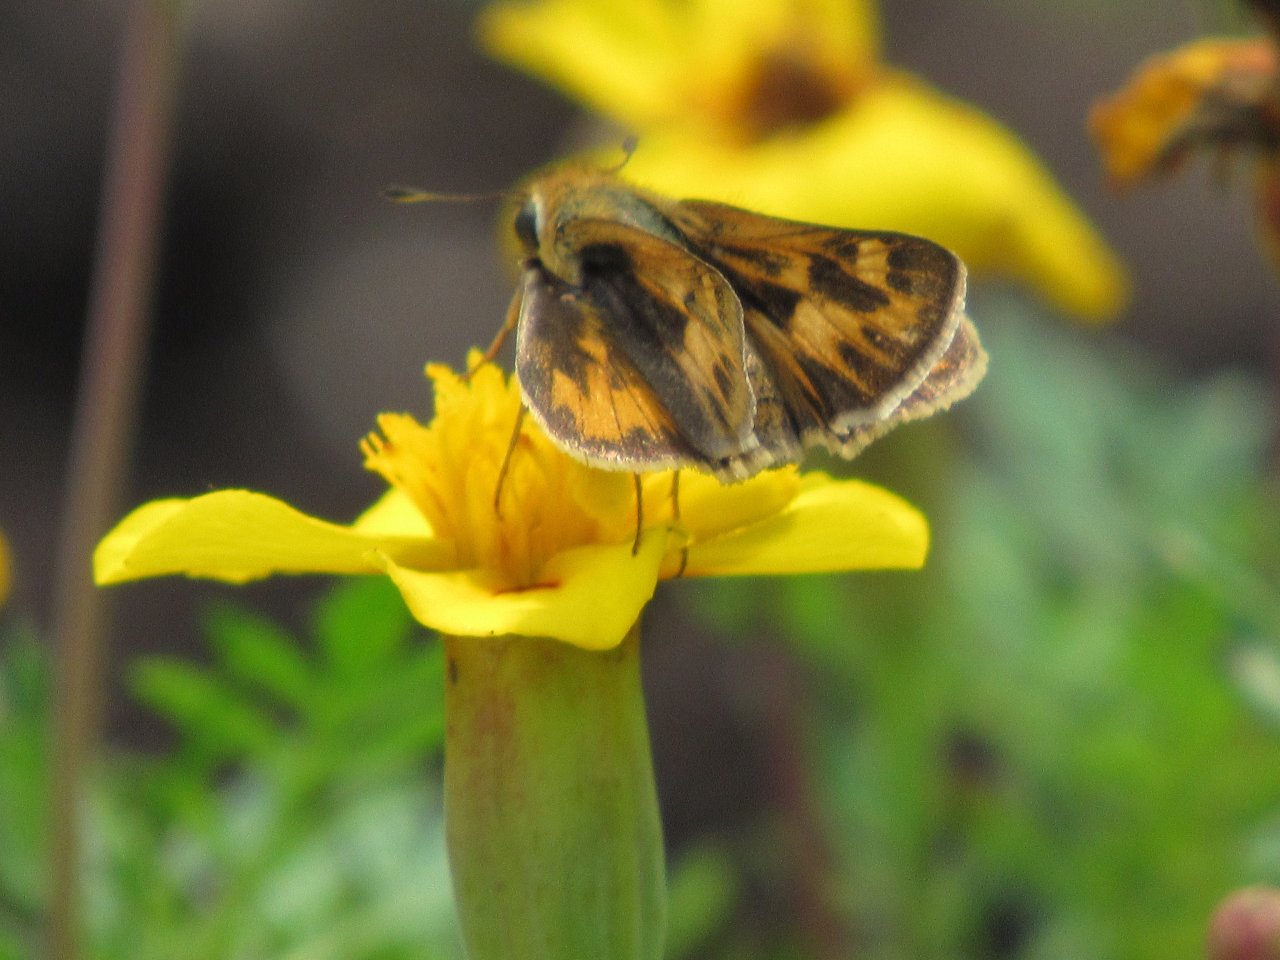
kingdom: Animalia
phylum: Arthropoda
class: Insecta
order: Lepidoptera
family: Hesperiidae
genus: Hylephila
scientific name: Hylephila phyleus
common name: Fiery Skipper
